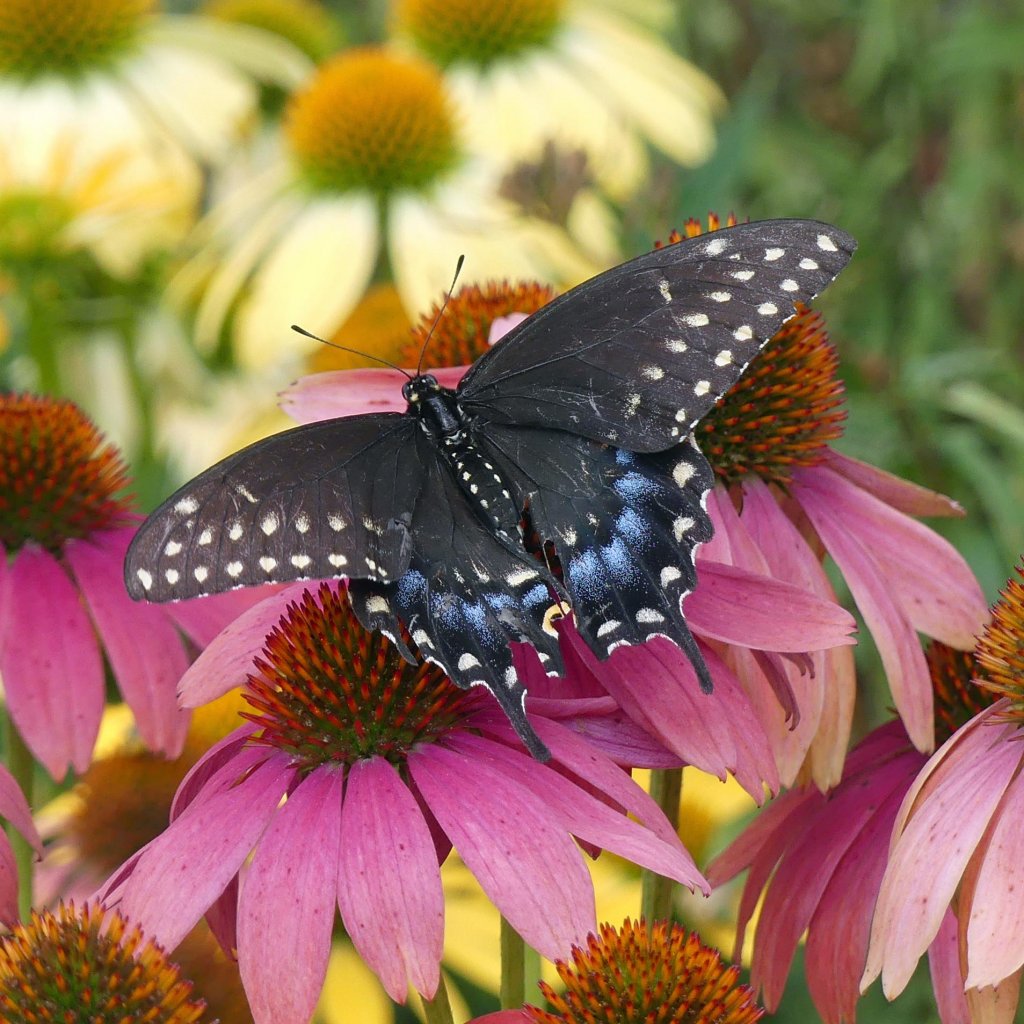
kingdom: Animalia
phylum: Arthropoda
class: Insecta
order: Lepidoptera
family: Papilionidae
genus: Papilio
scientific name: Papilio polyxenes
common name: Black Swallowtail
